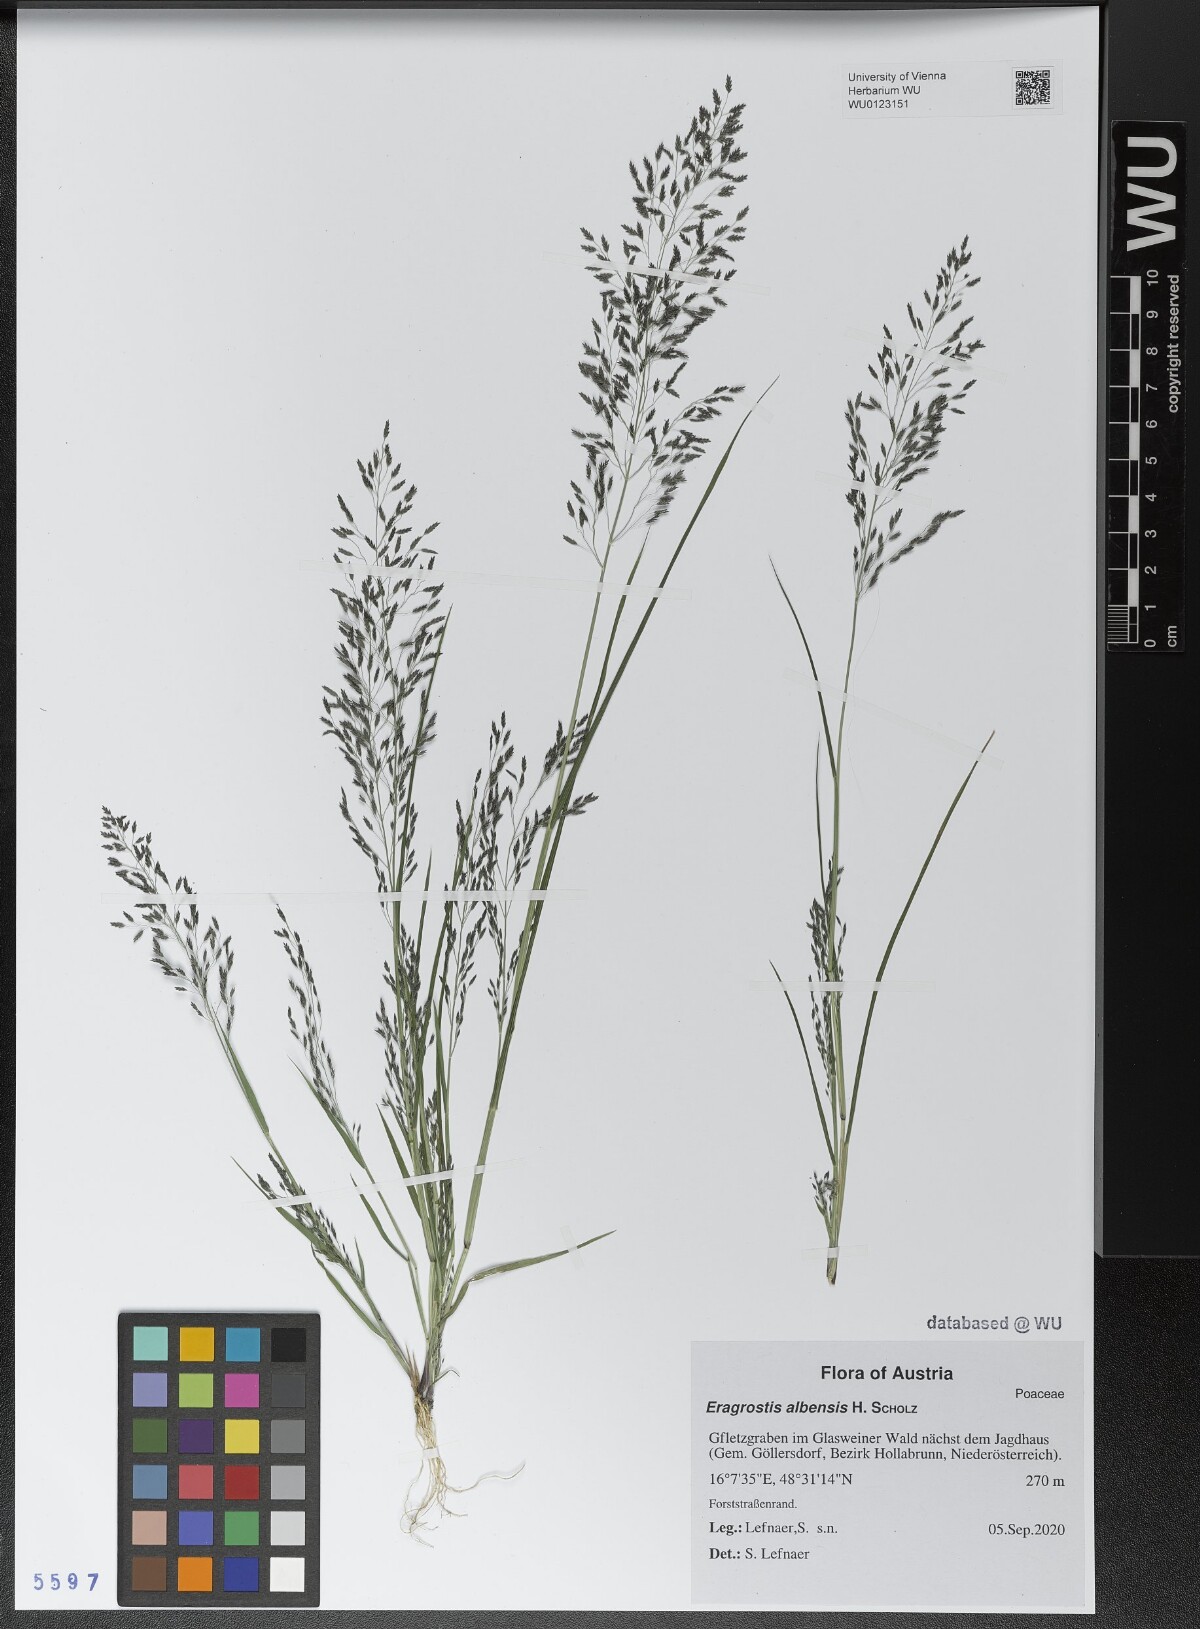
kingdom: Plantae
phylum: Tracheophyta
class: Liliopsida
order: Poales
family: Poaceae
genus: Eragrostis
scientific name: Eragrostis pilosa
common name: Indian lovegrass
